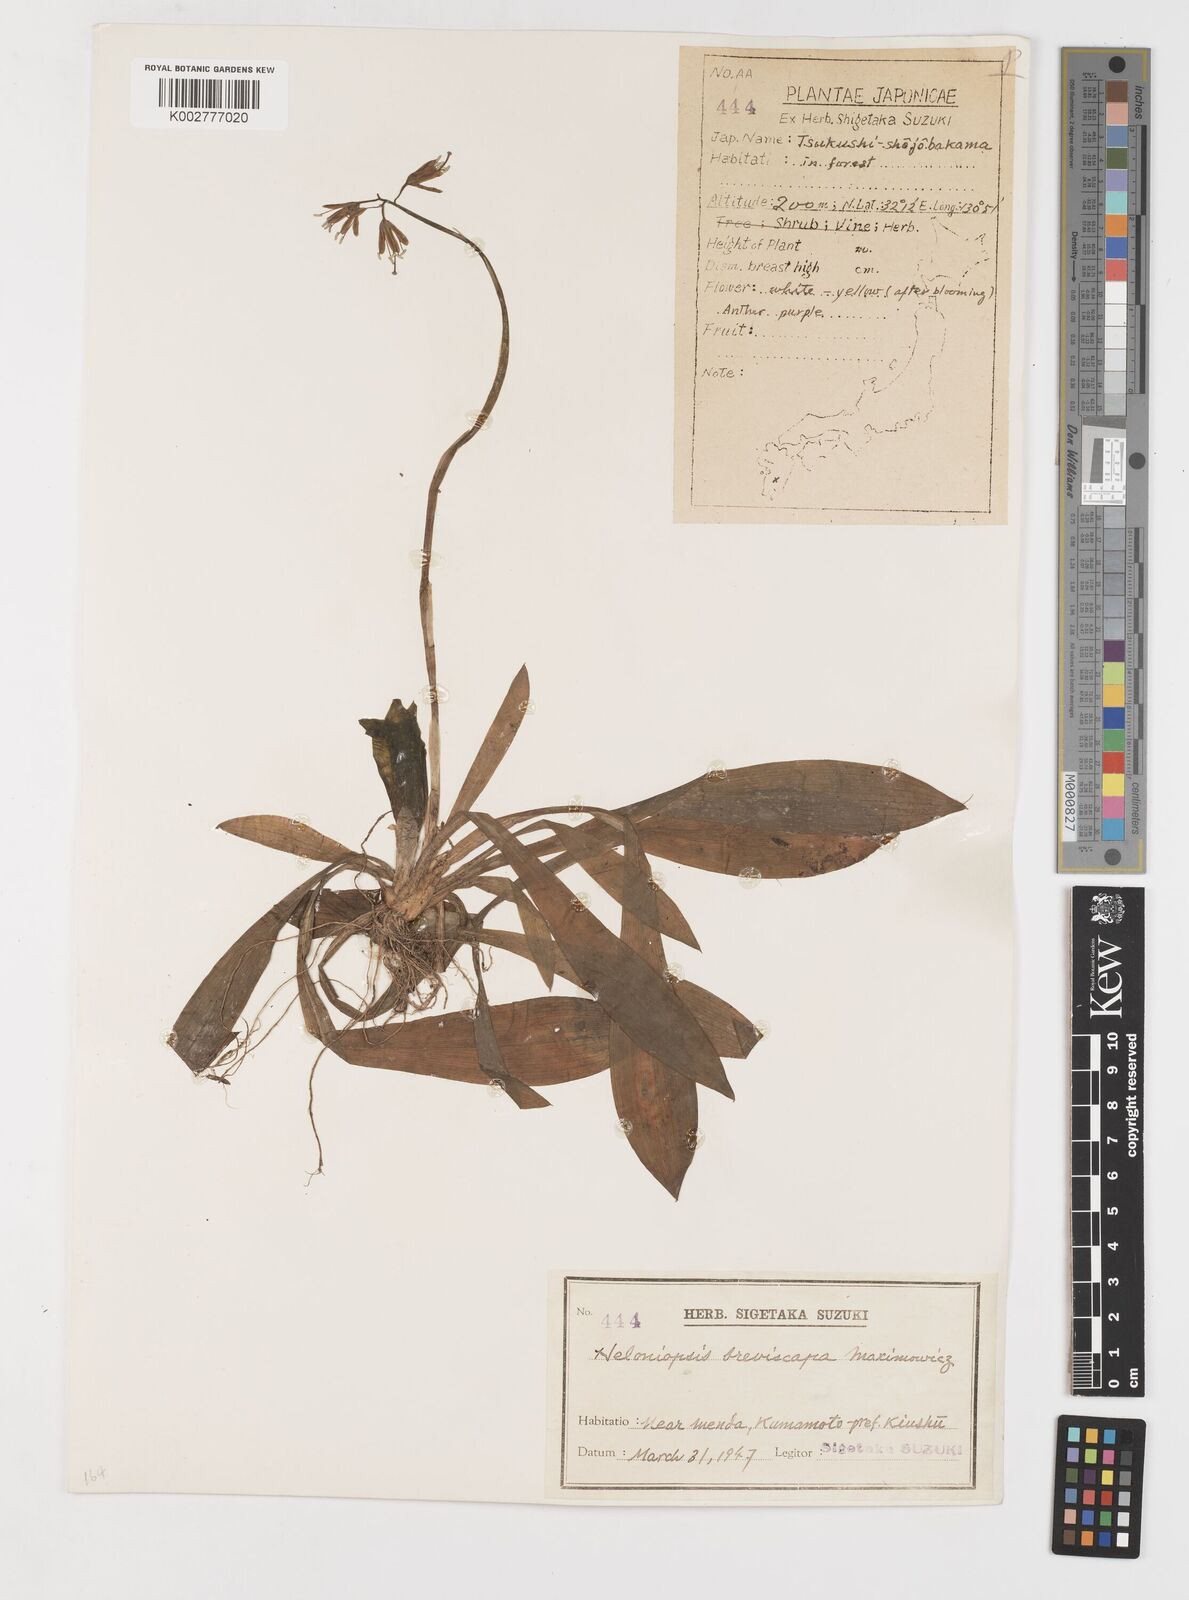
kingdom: Plantae
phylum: Tracheophyta
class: Liliopsida
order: Liliales
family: Melanthiaceae
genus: Helonias
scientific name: Helonias orientalis
